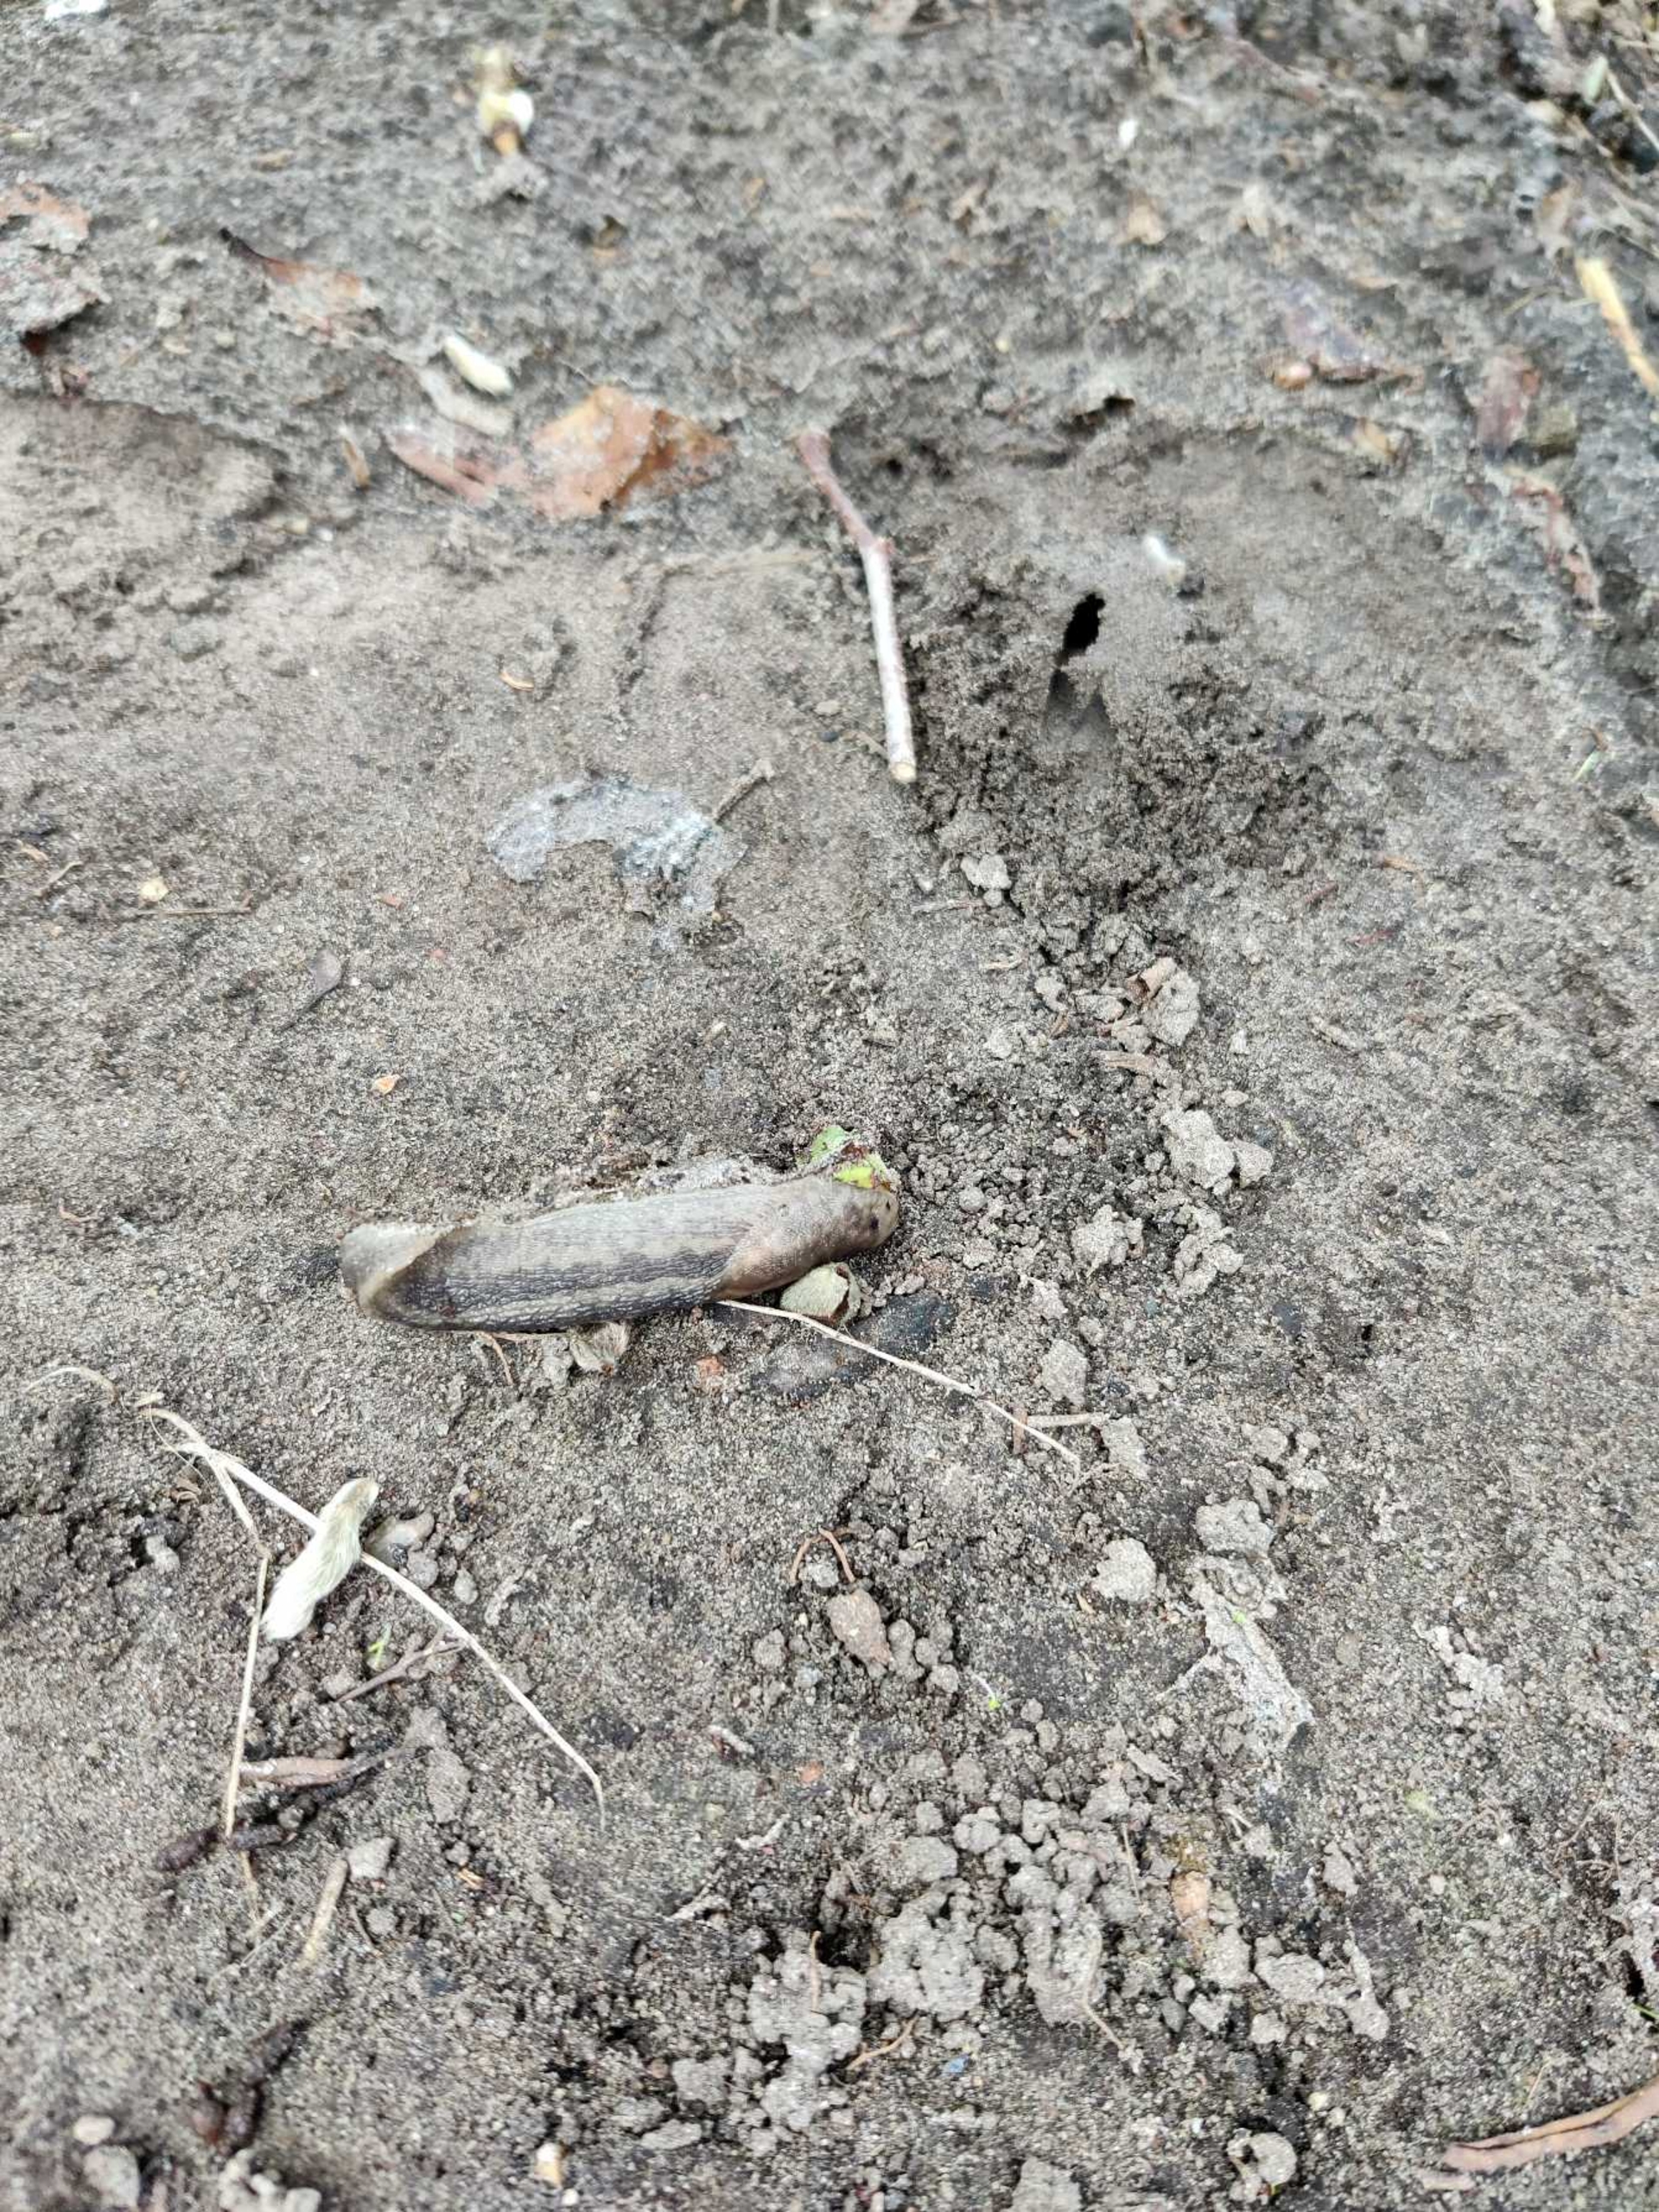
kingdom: Animalia
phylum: Mollusca
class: Gastropoda
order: Stylommatophora
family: Limacidae
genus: Limax
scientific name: Limax maximus
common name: Pantersnegl
